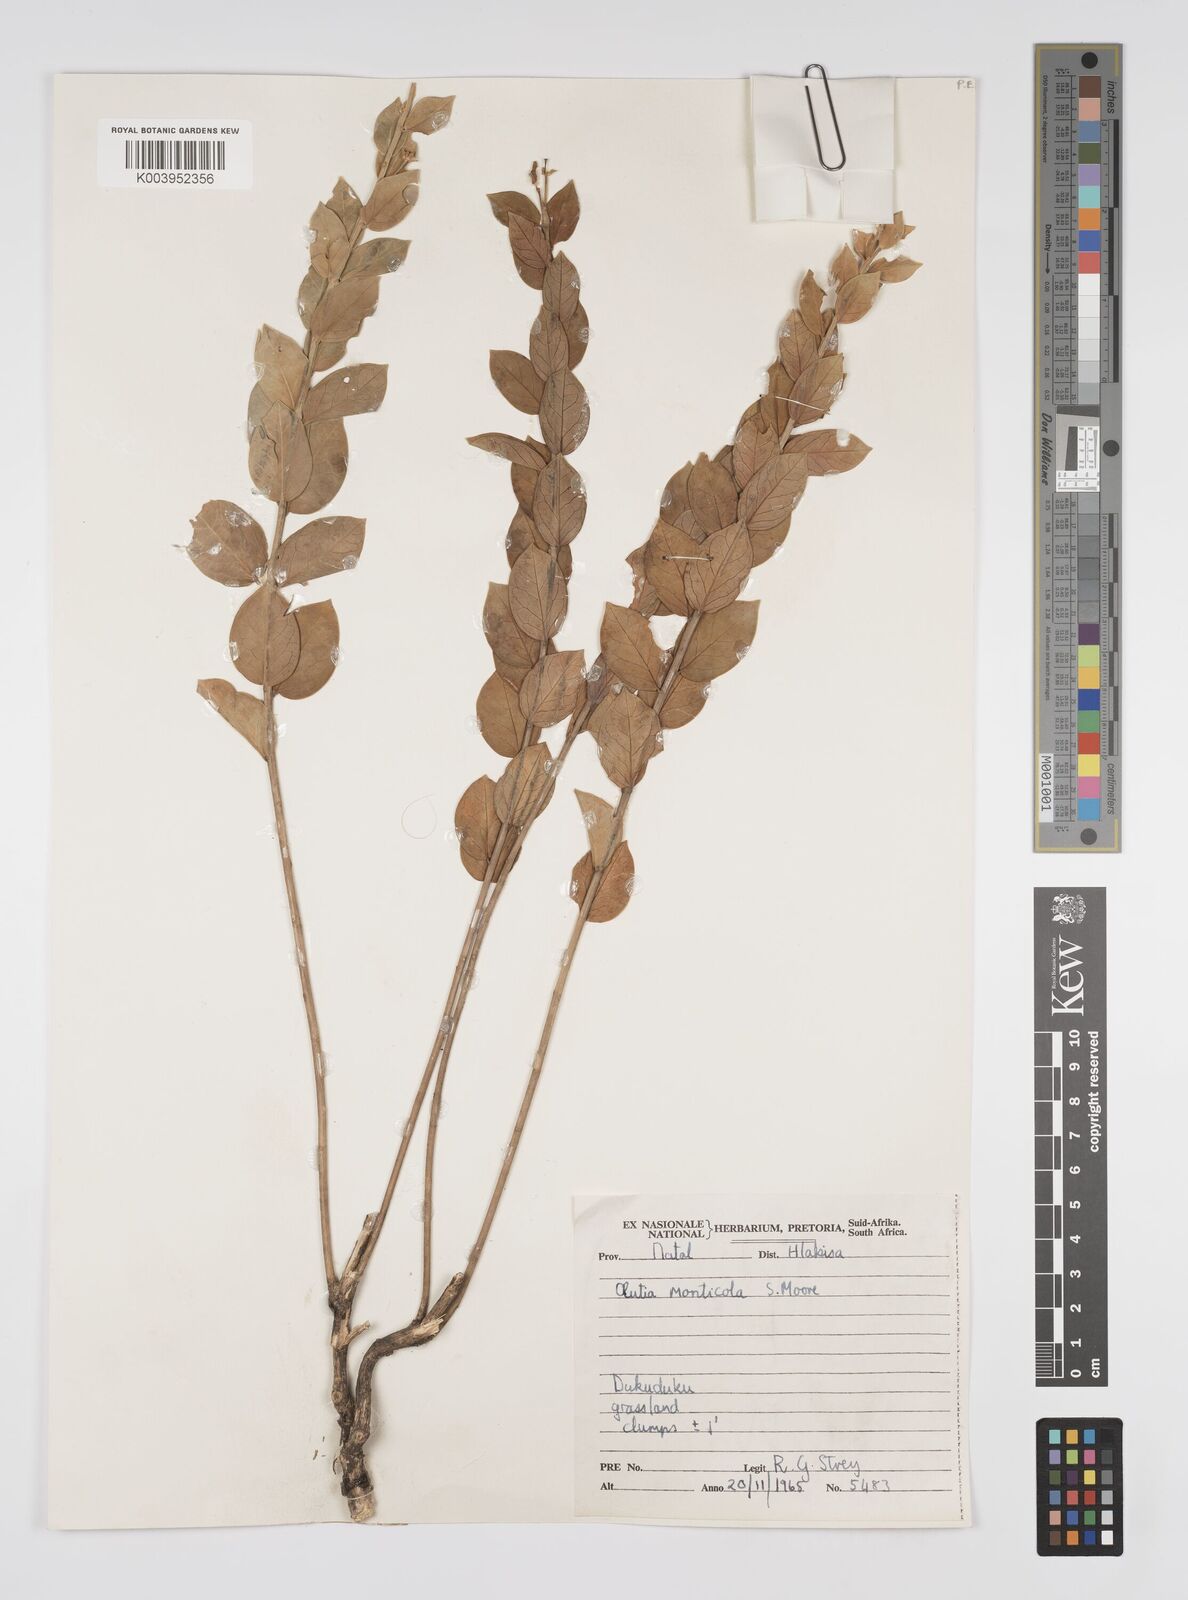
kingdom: Plantae
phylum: Tracheophyta
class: Magnoliopsida
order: Malpighiales
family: Peraceae
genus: Clutia
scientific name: Clutia monticola
